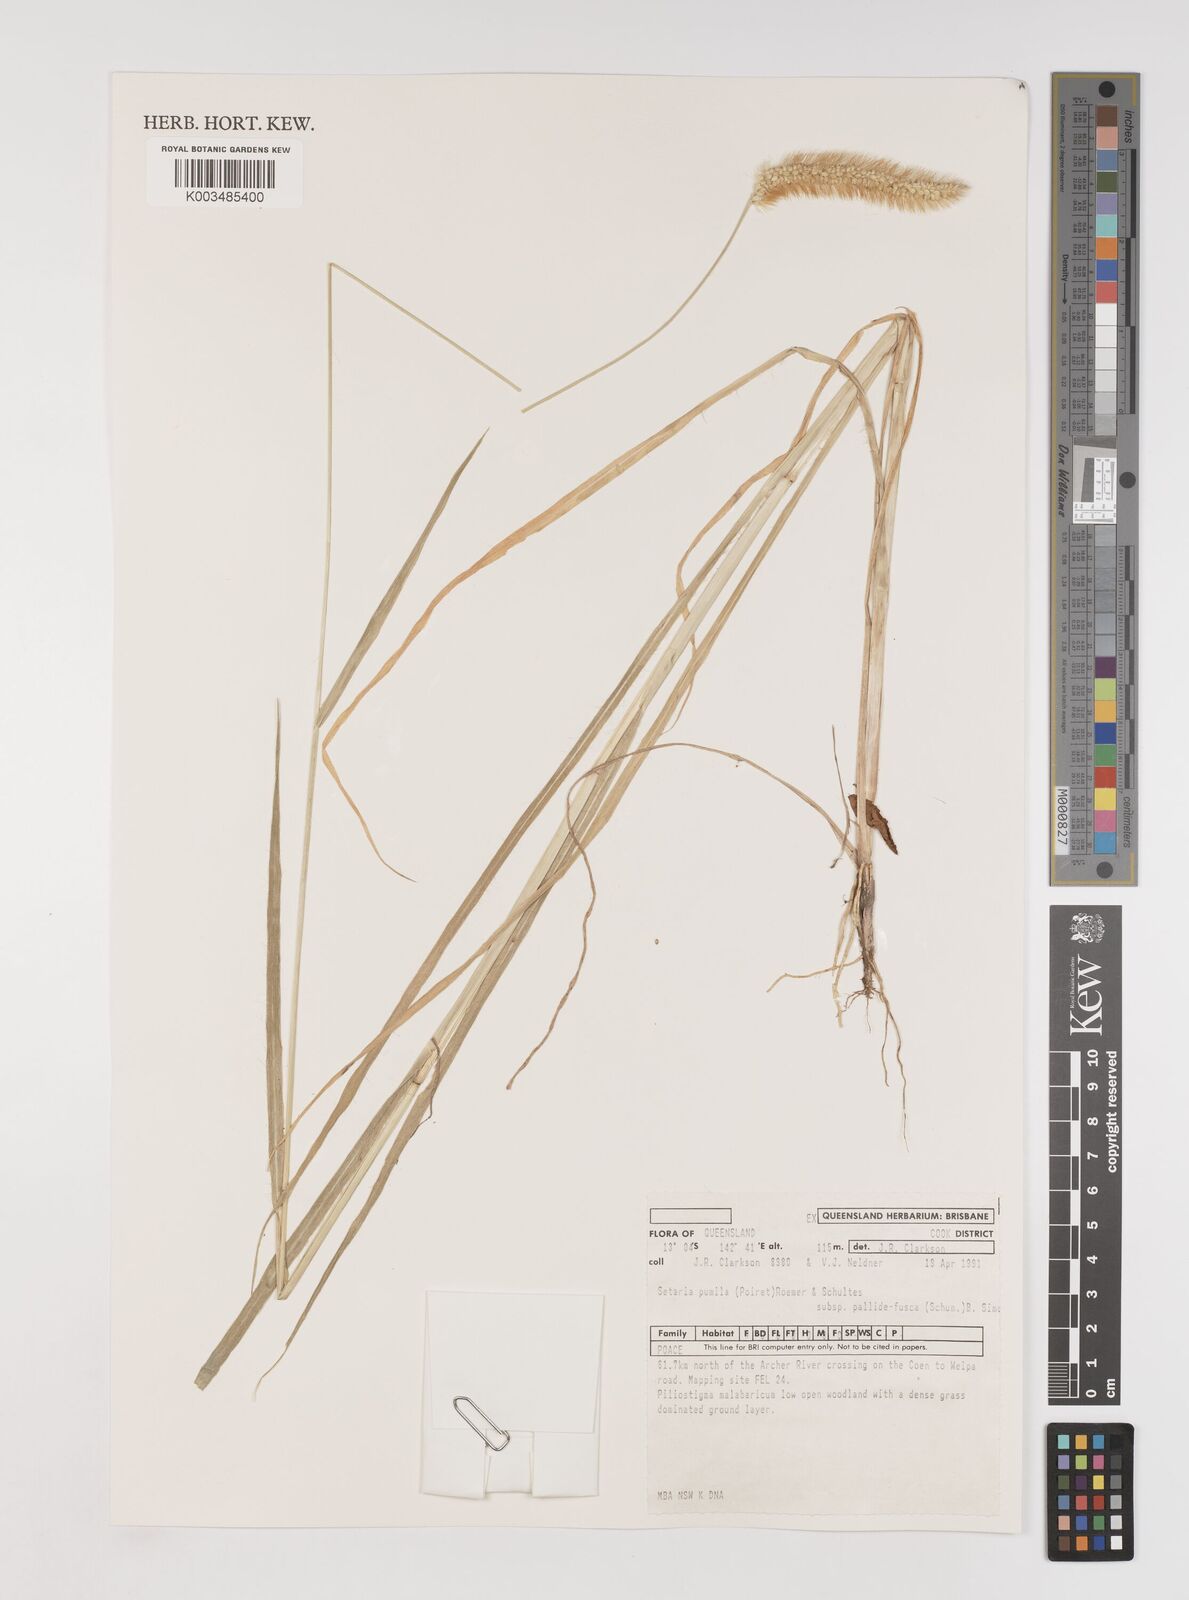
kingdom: Plantae
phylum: Tracheophyta
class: Liliopsida
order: Poales
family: Poaceae
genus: Setaria
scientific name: Setaria pumila
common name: Yellow bristle-grass
